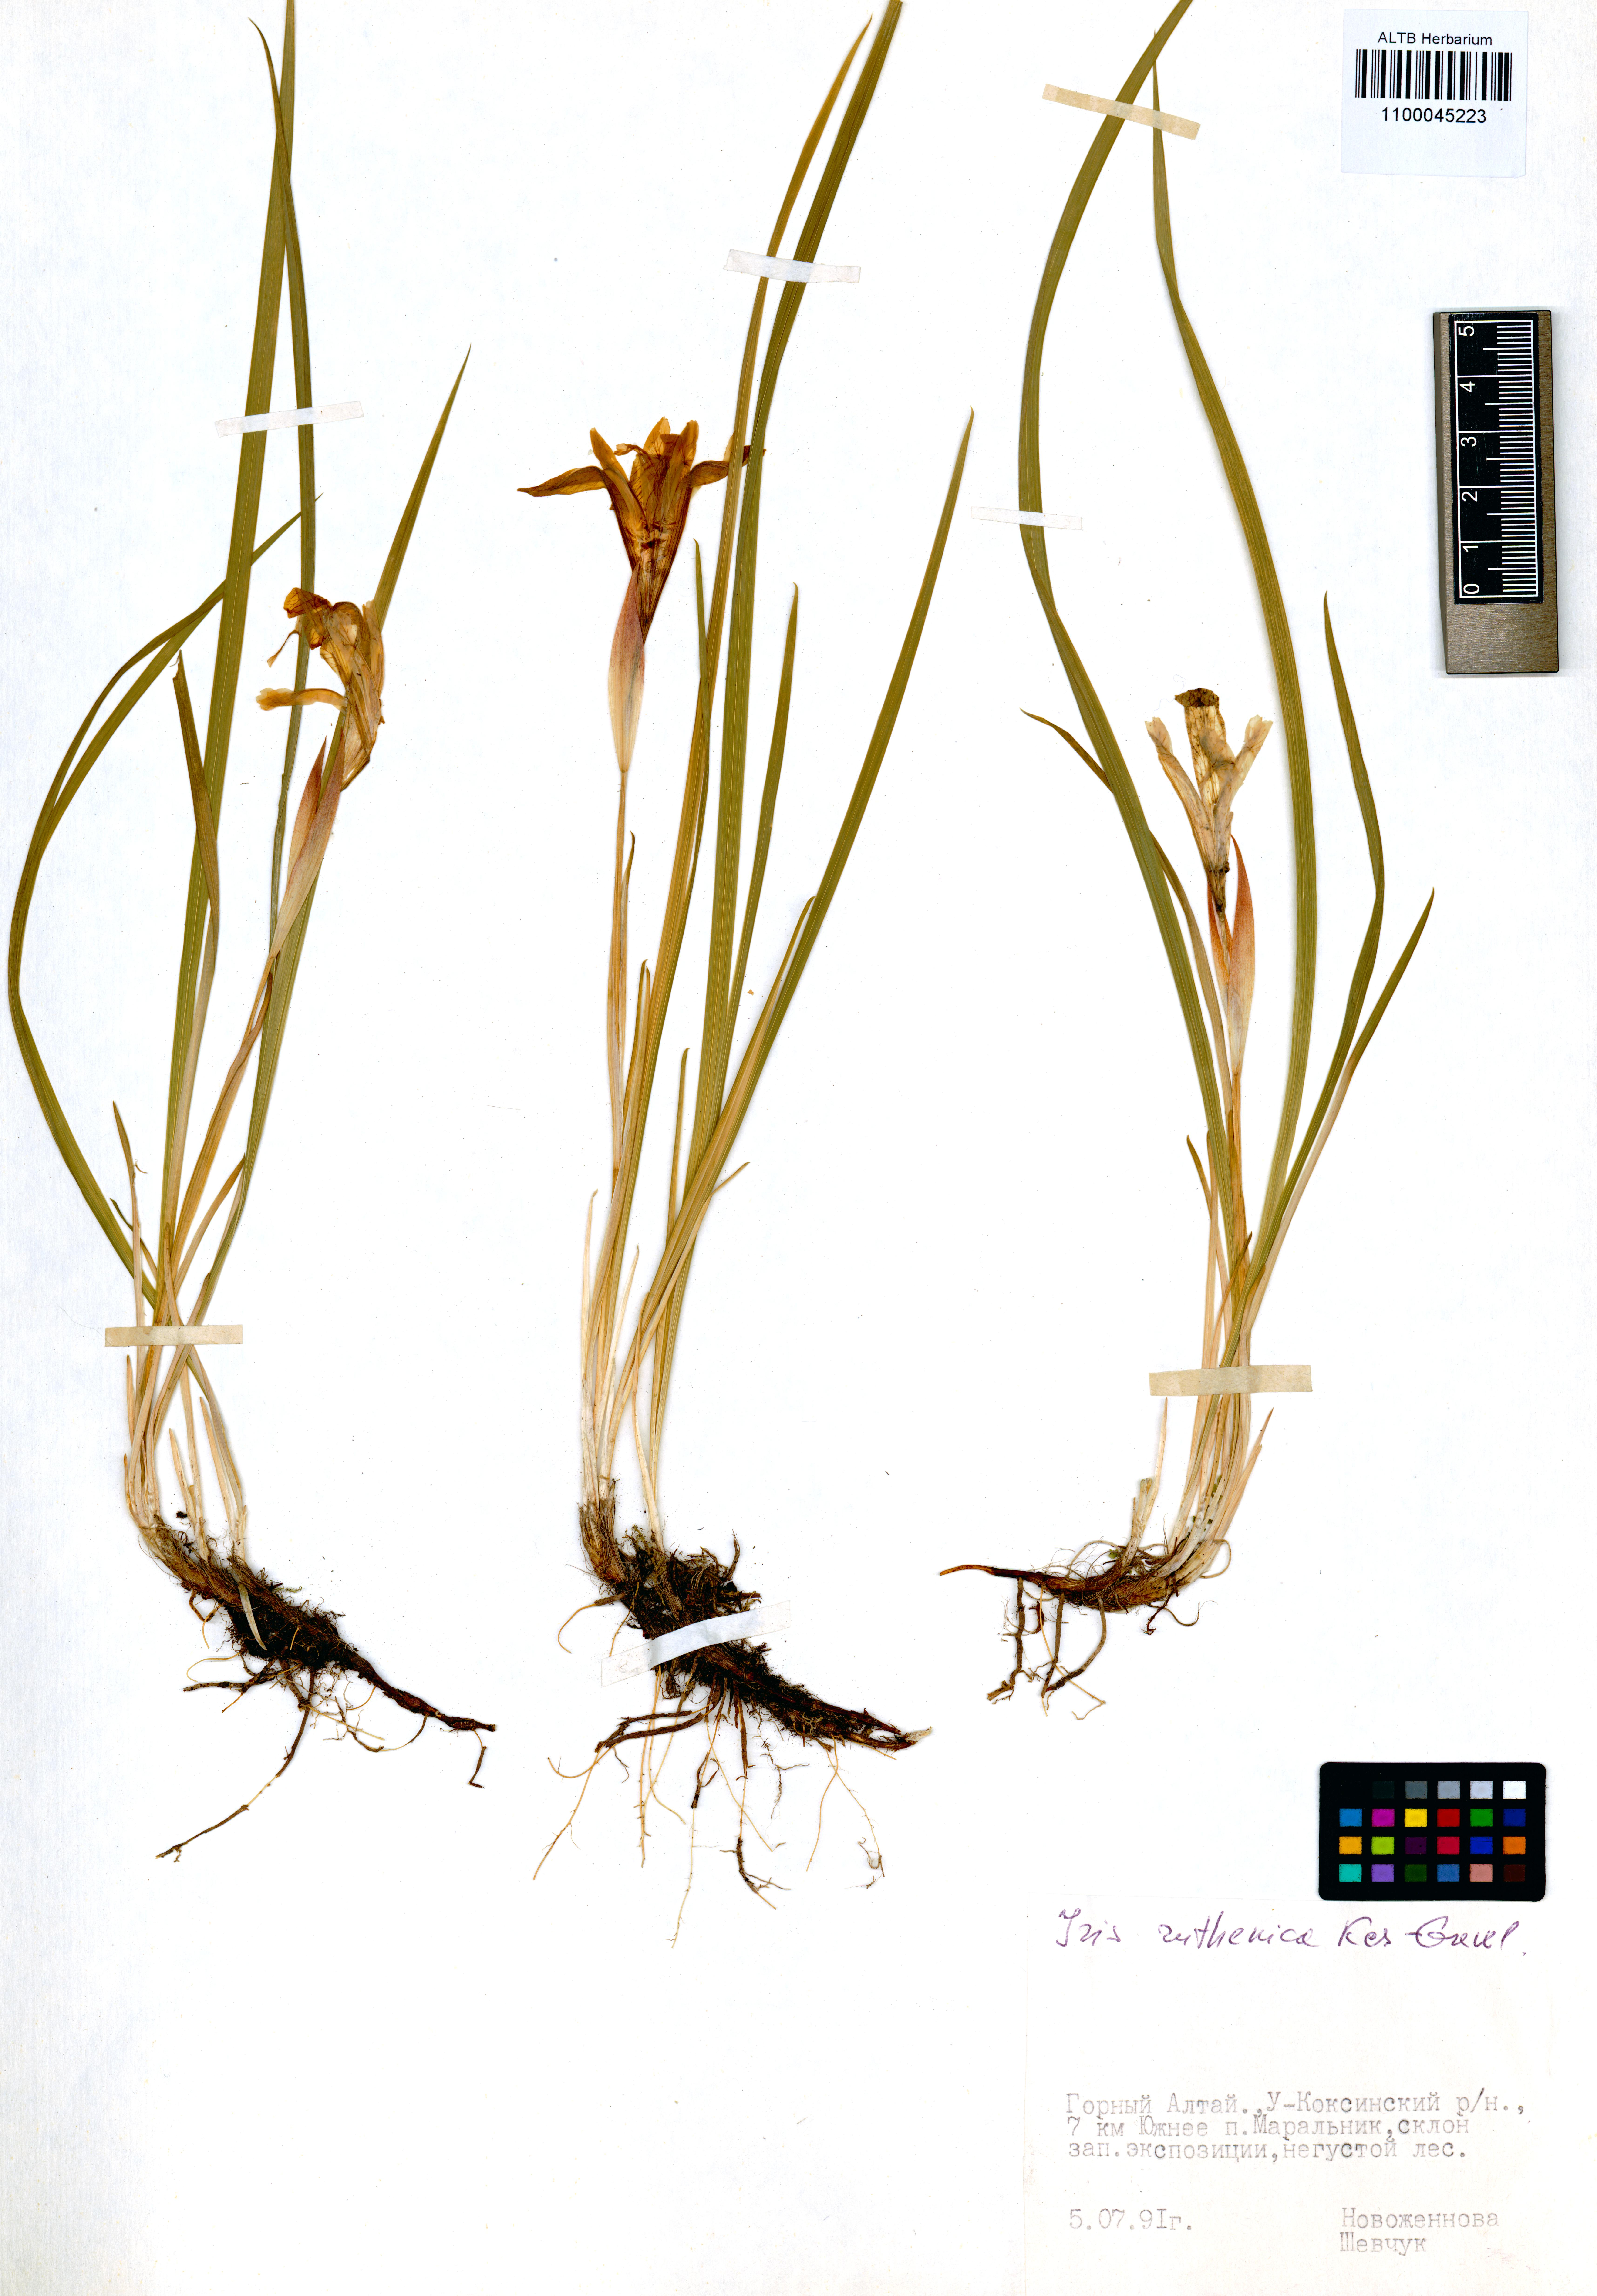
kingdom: Plantae
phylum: Tracheophyta
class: Liliopsida
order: Asparagales
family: Iridaceae
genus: Iris
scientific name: Iris ruthenica
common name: Purple-bract iris
